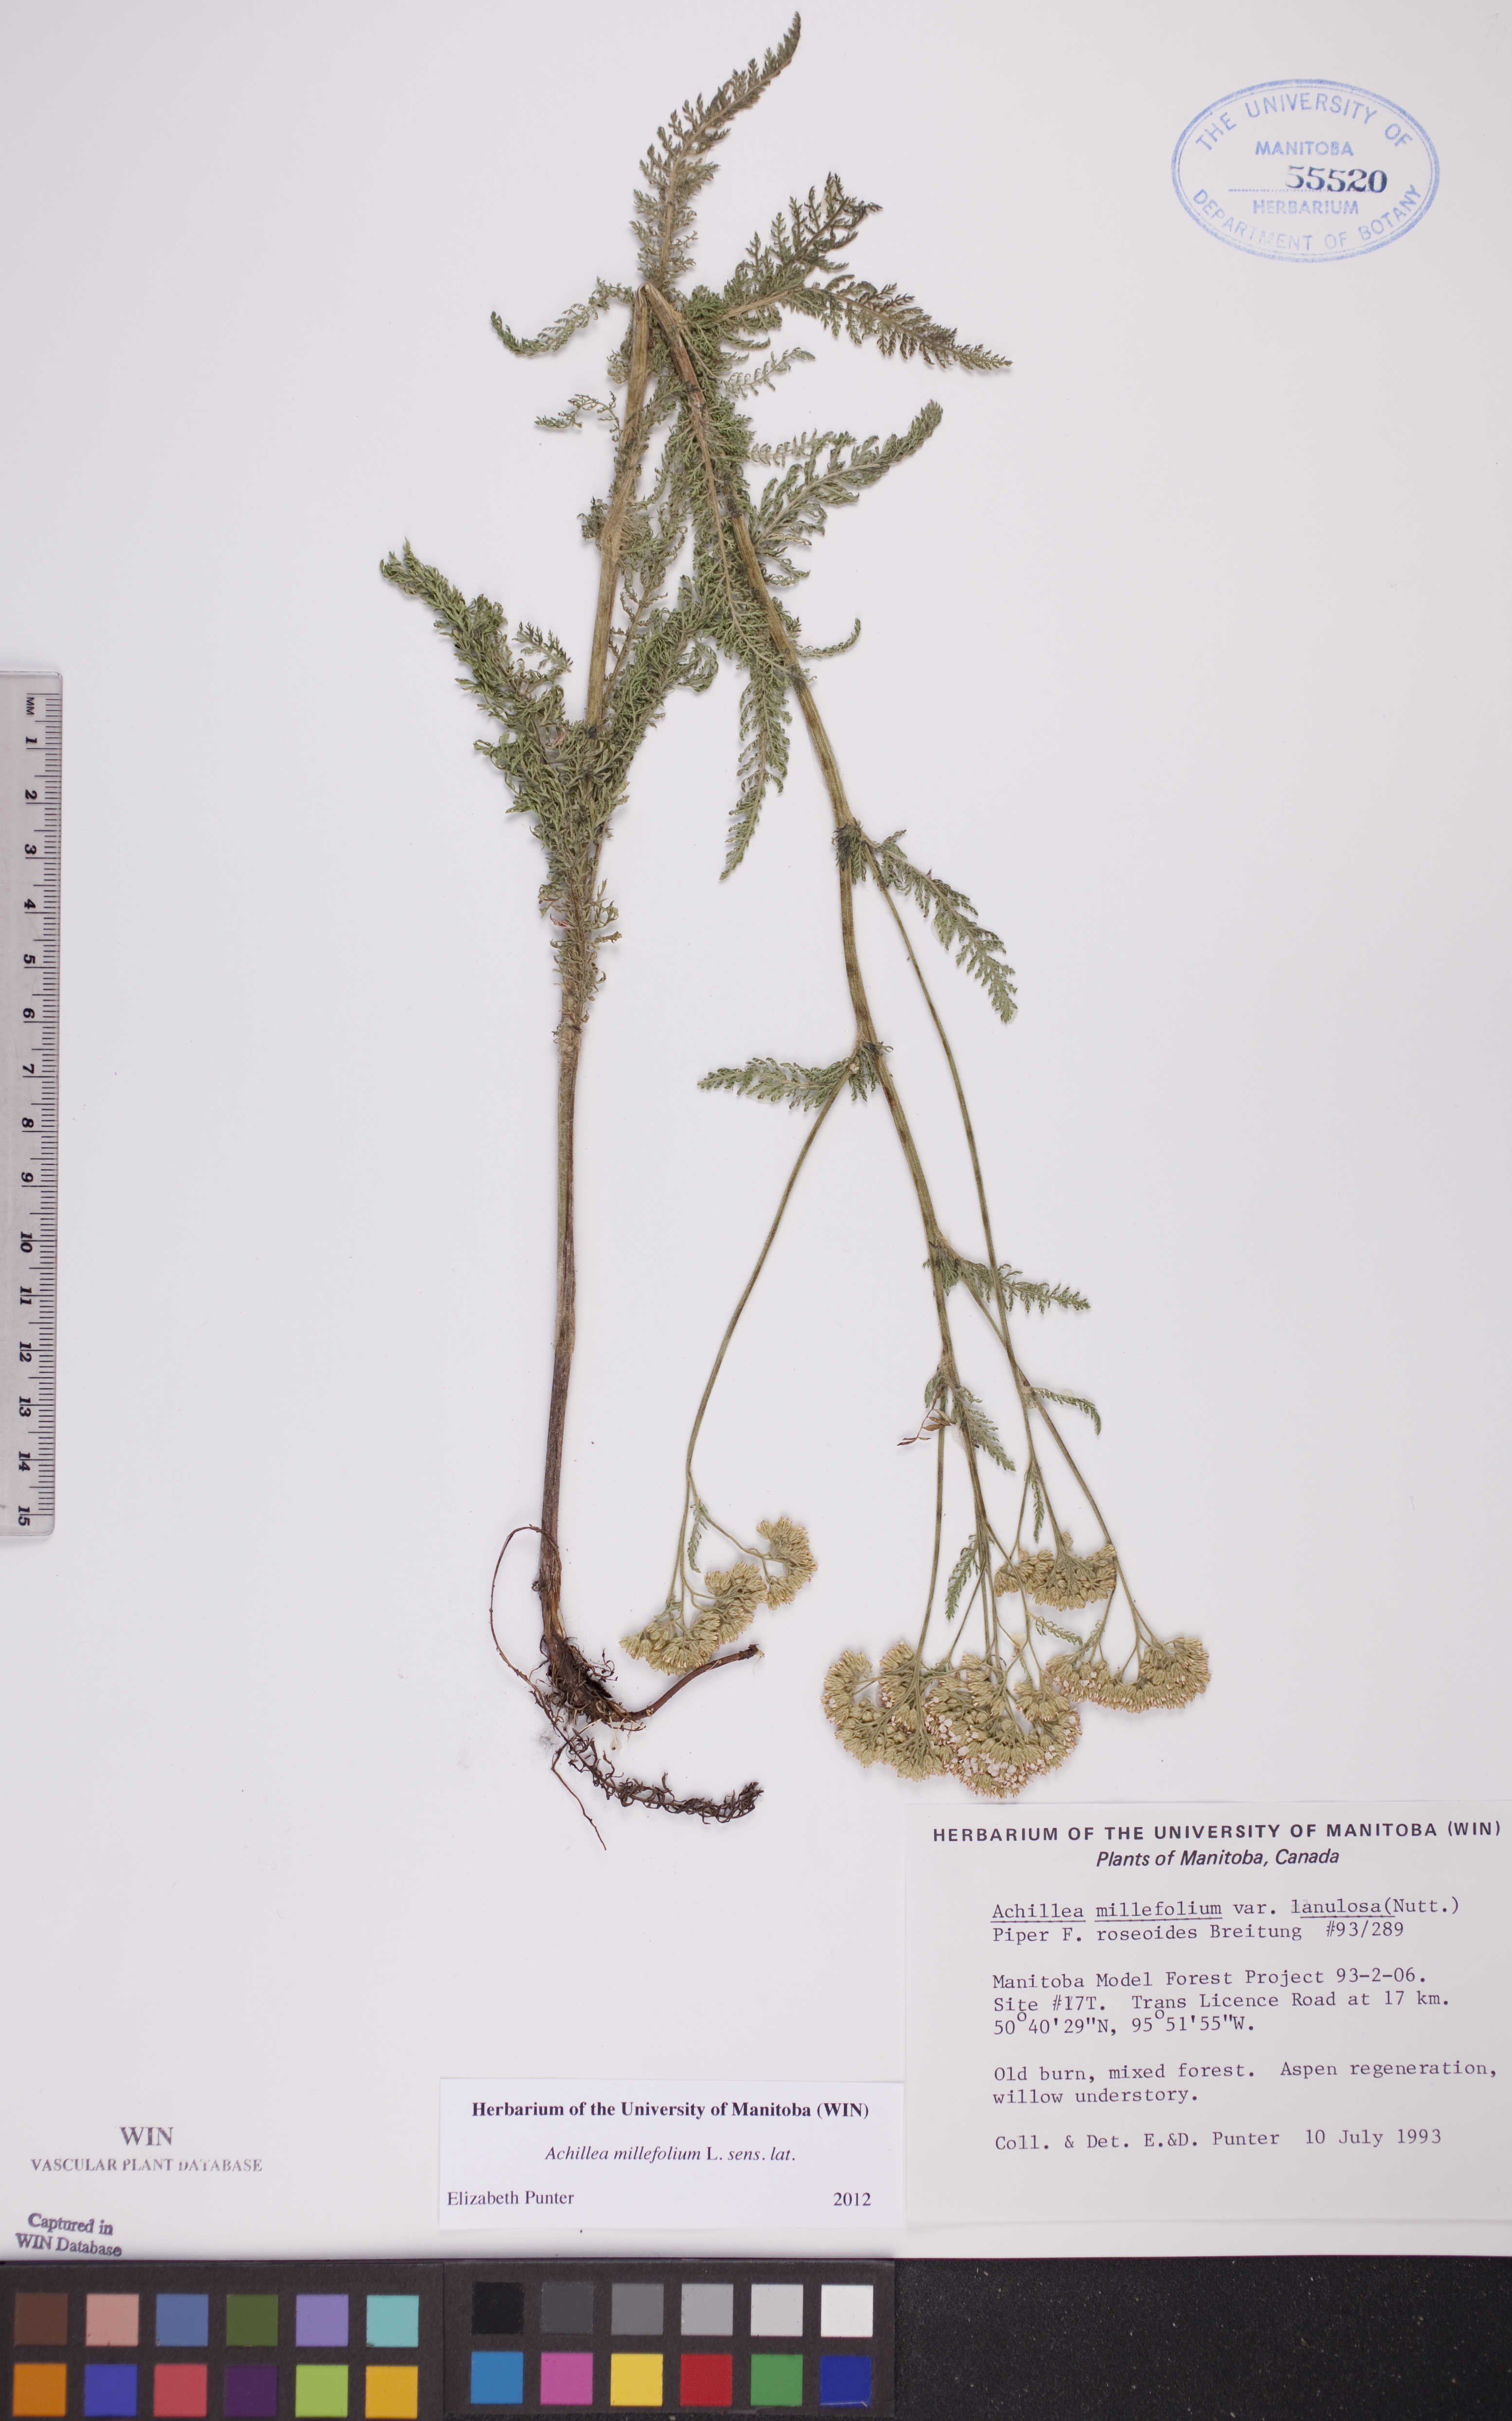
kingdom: Plantae
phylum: Tracheophyta
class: Magnoliopsida
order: Asterales
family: Asteraceae
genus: Achillea
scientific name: Achillea millefolium
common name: Yarrow
